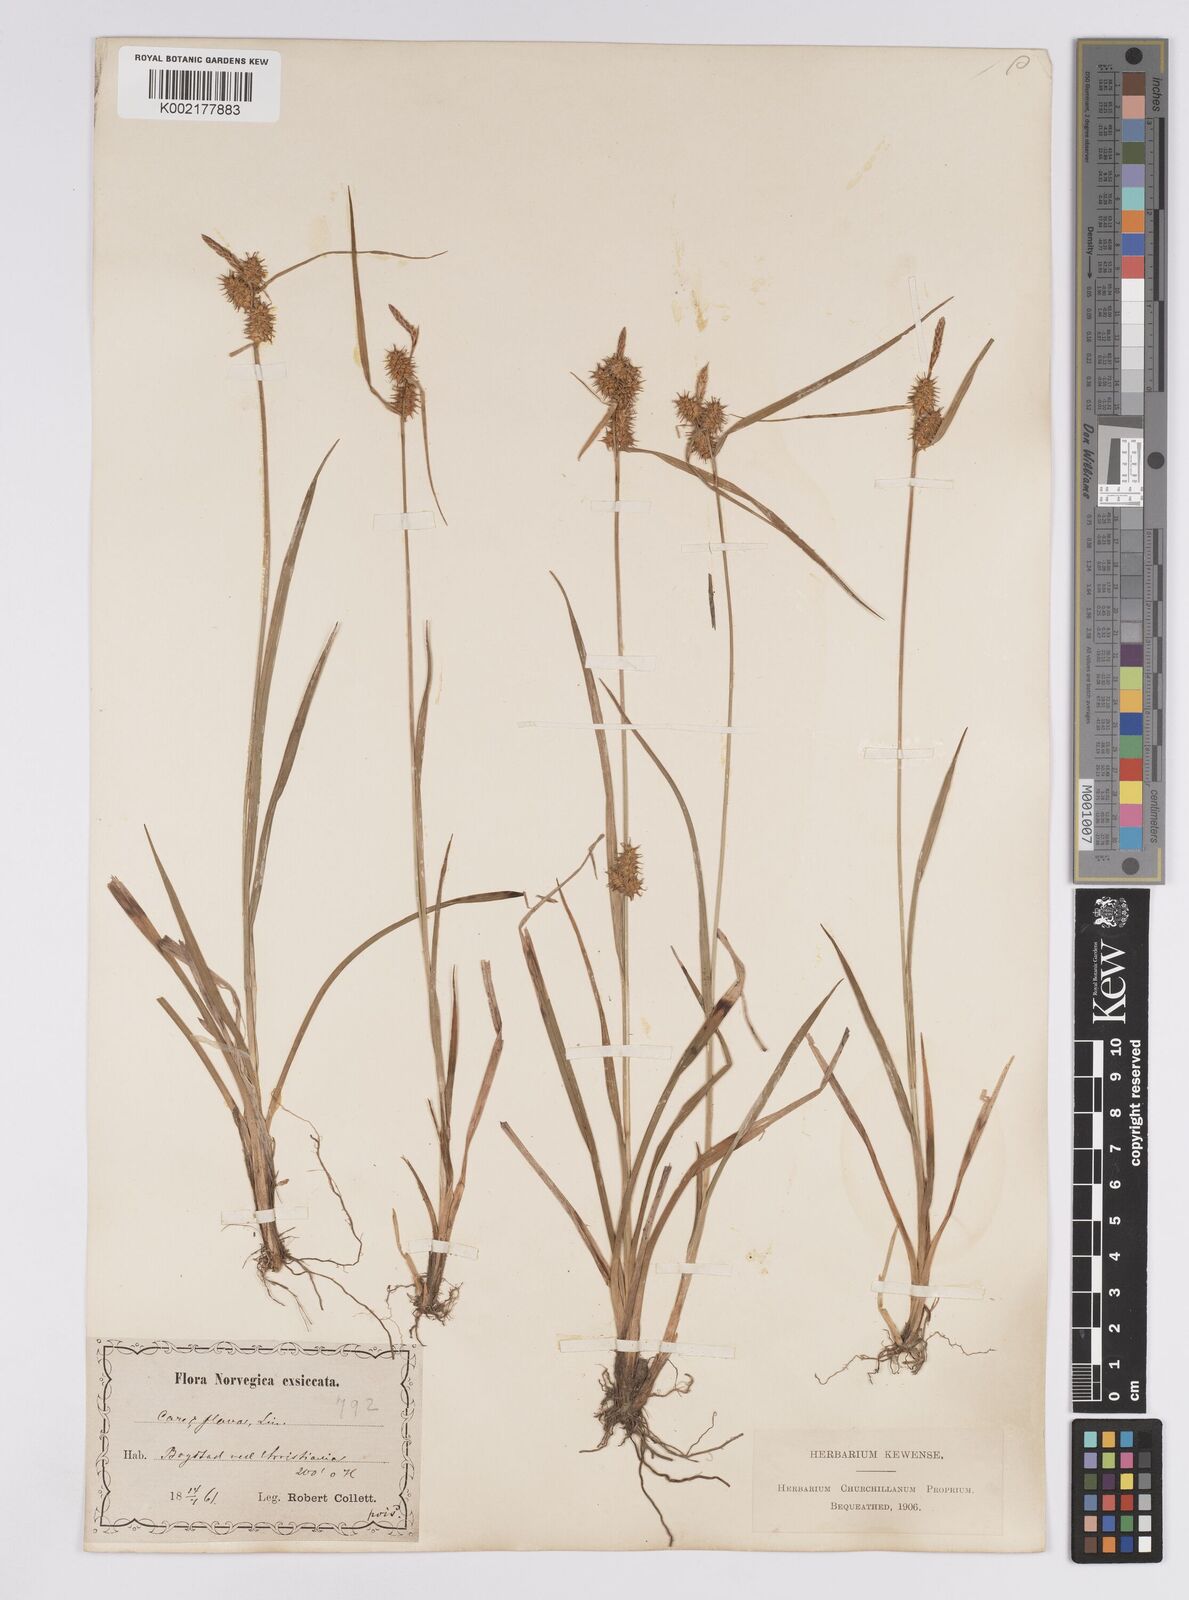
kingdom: Plantae
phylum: Tracheophyta
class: Liliopsida
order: Poales
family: Cyperaceae
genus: Carex
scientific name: Carex flava
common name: Large yellow-sedge
